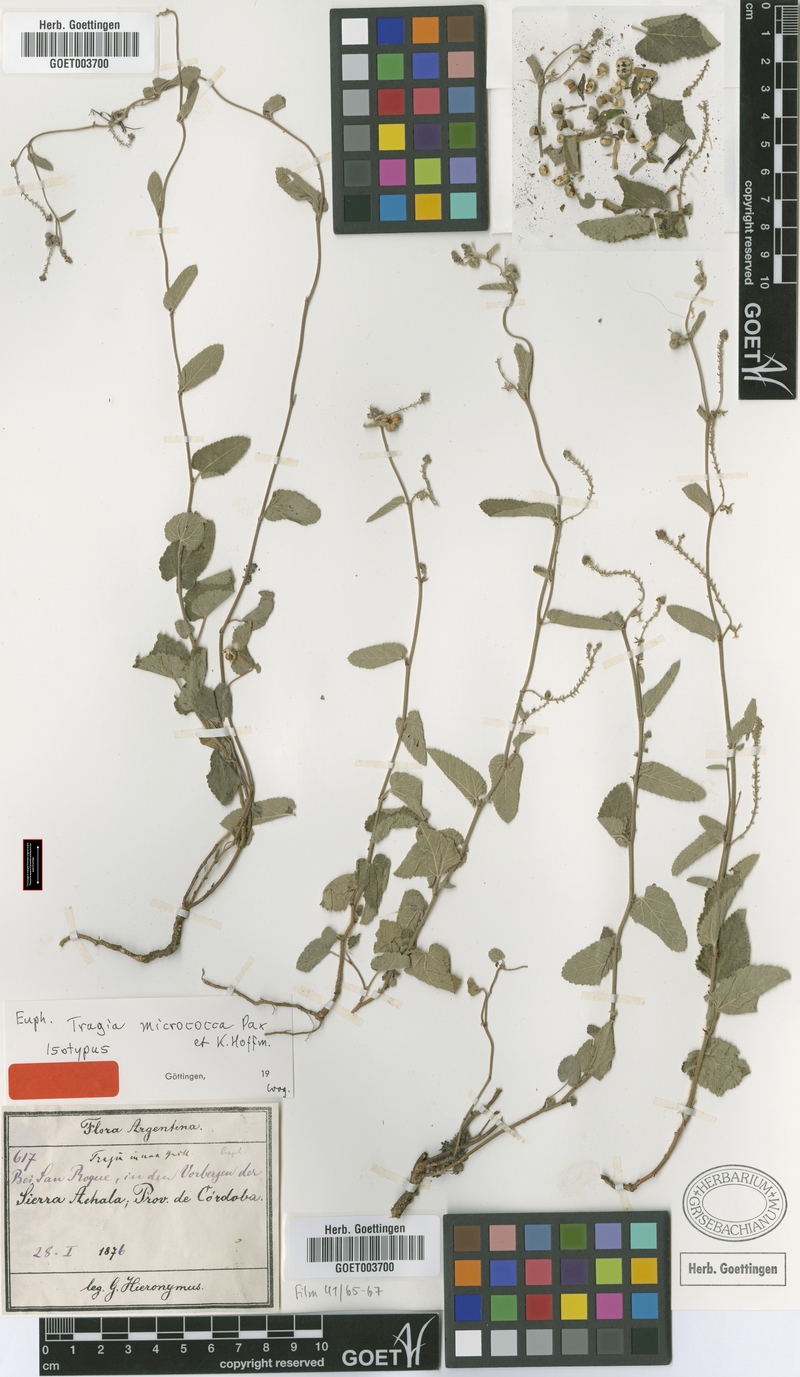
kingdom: Plantae
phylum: Tracheophyta
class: Magnoliopsida
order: Malpighiales
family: Euphorbiaceae
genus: Tragia
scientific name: Tragia melochioides
